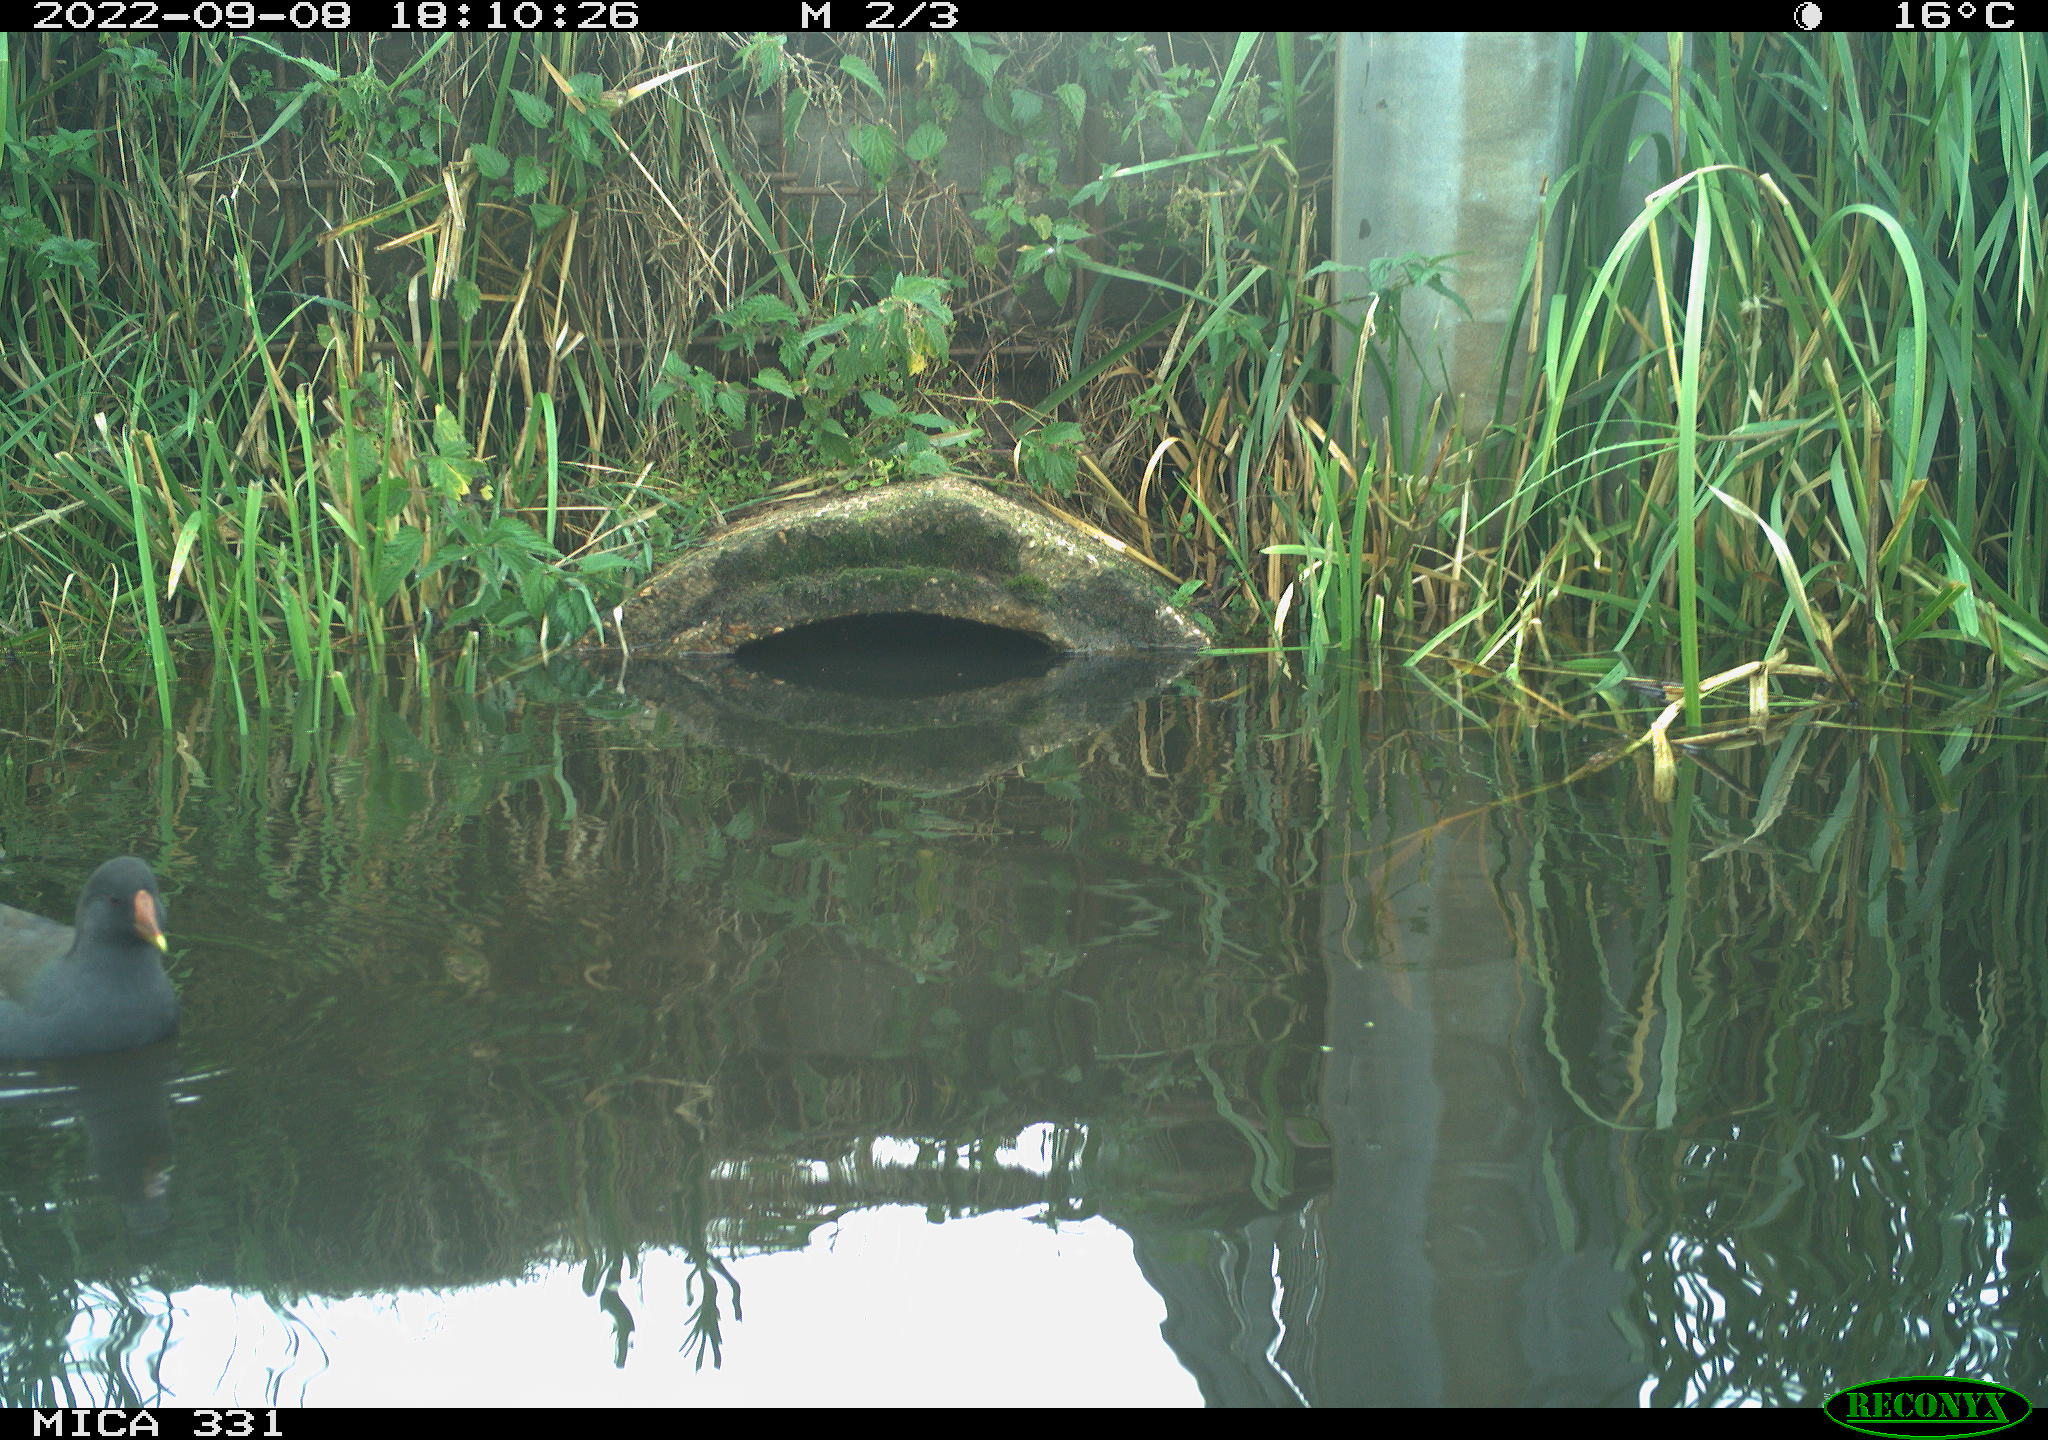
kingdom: Animalia
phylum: Chordata
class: Aves
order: Gruiformes
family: Rallidae
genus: Gallinula
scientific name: Gallinula chloropus
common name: Common moorhen
